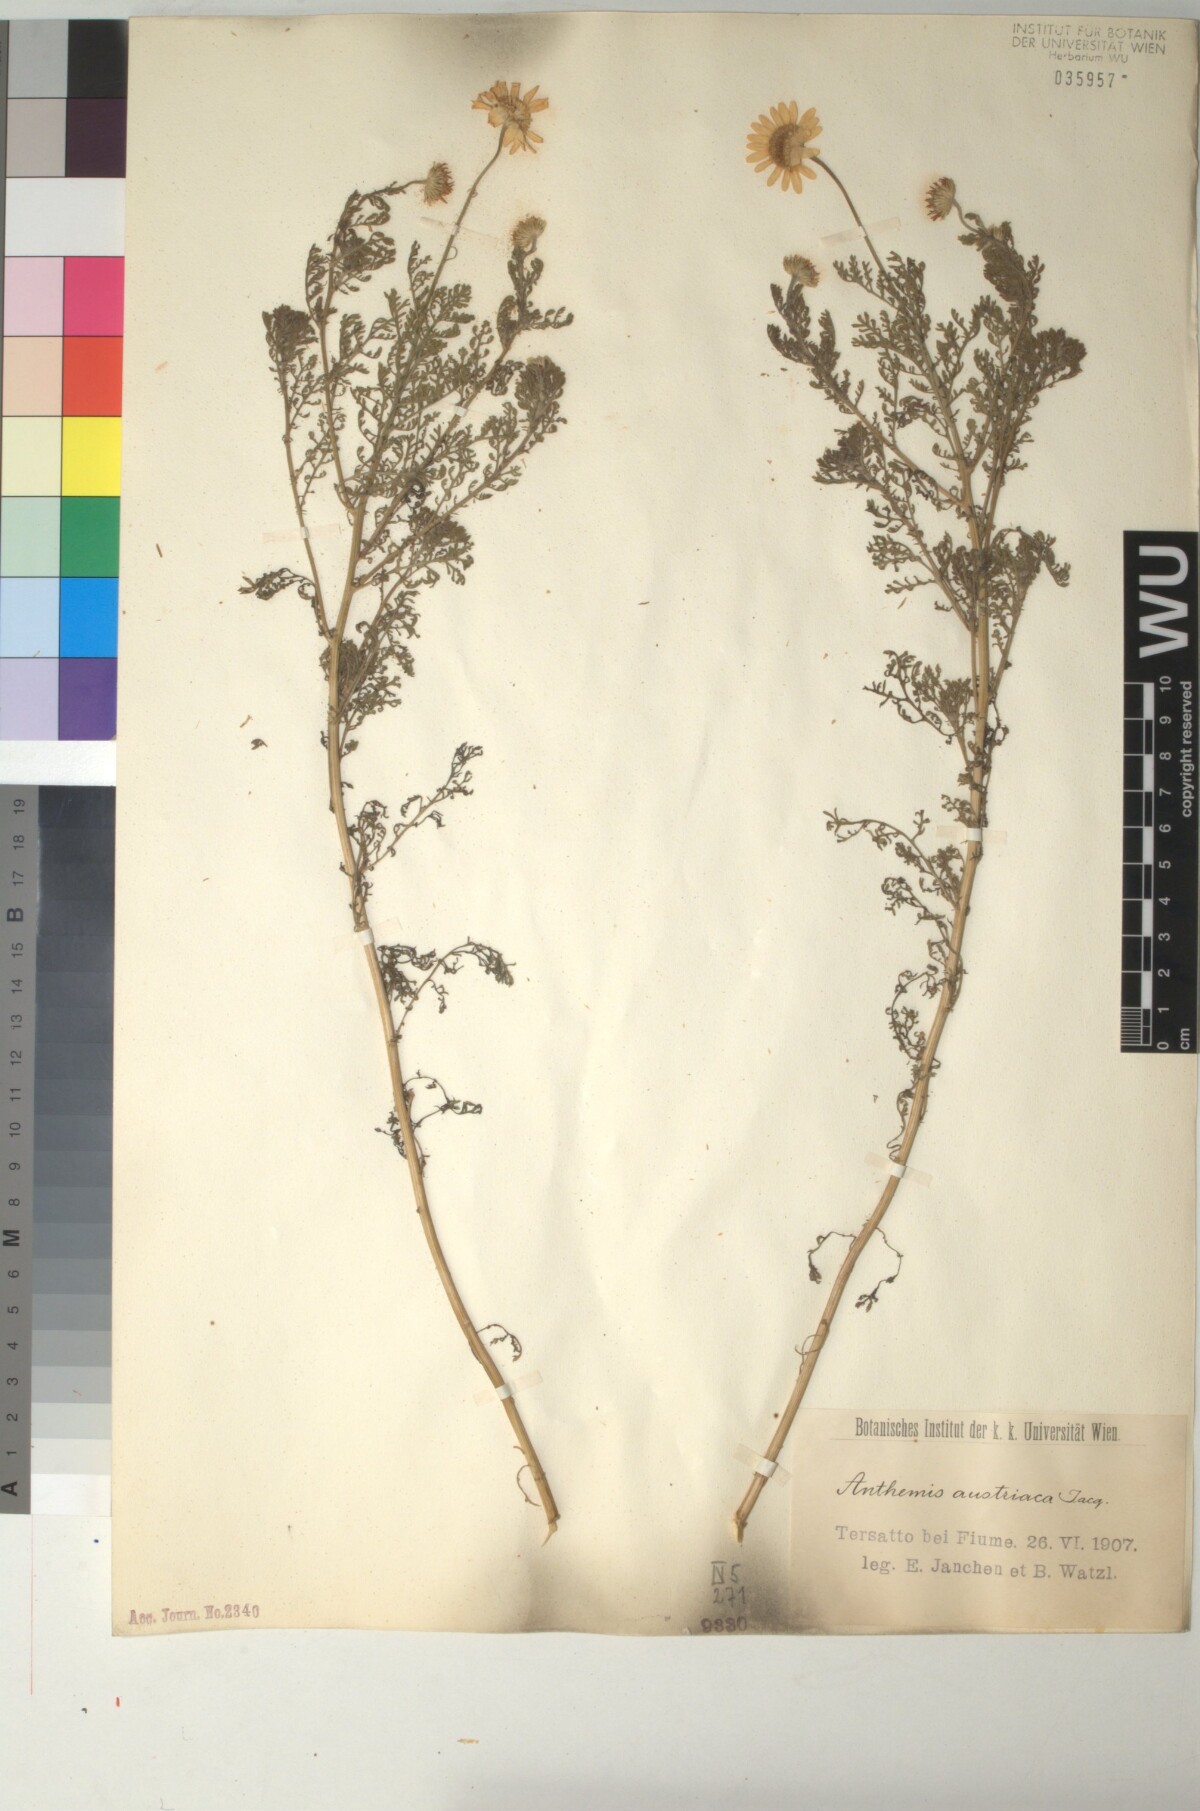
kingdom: Plantae
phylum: Tracheophyta
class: Magnoliopsida
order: Asterales
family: Asteraceae
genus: Cota
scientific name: Cota austriaca
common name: Austrian chamomile
